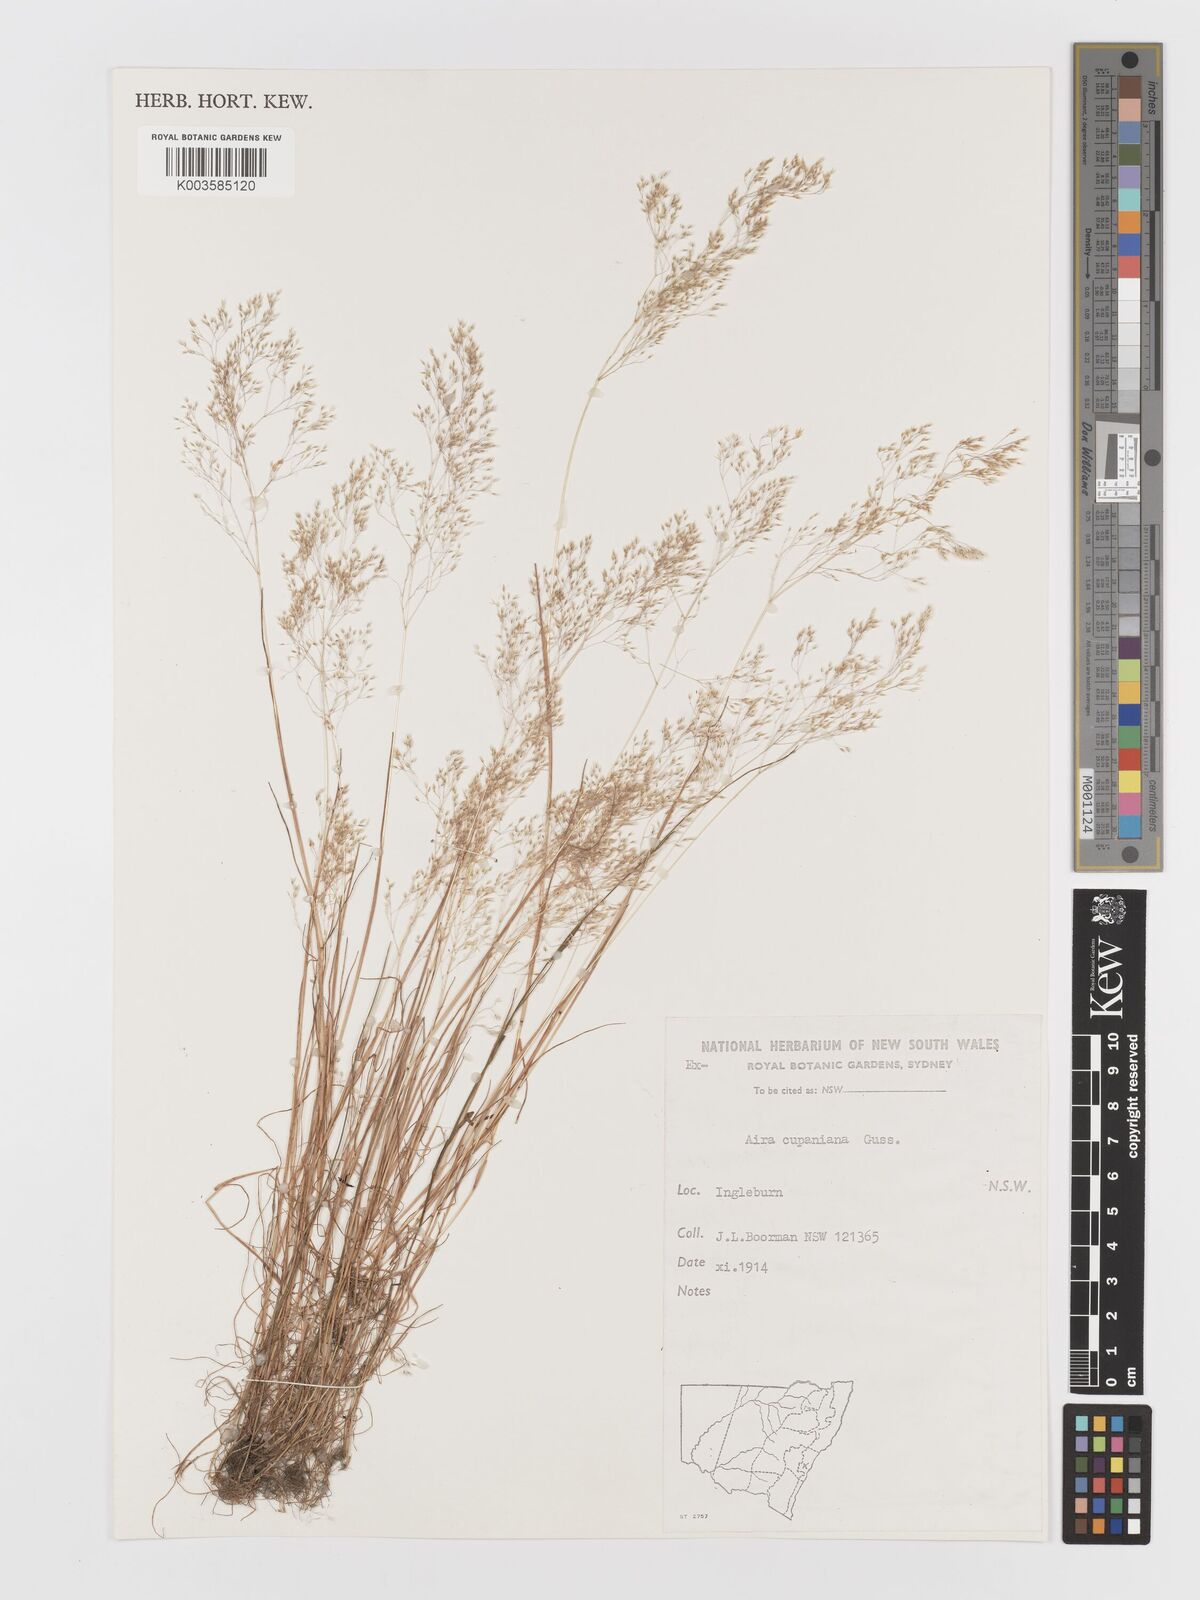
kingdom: Plantae
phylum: Tracheophyta
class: Liliopsida
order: Poales
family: Poaceae
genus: Aira
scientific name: Aira cupaniana
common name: Silver hairgrass
